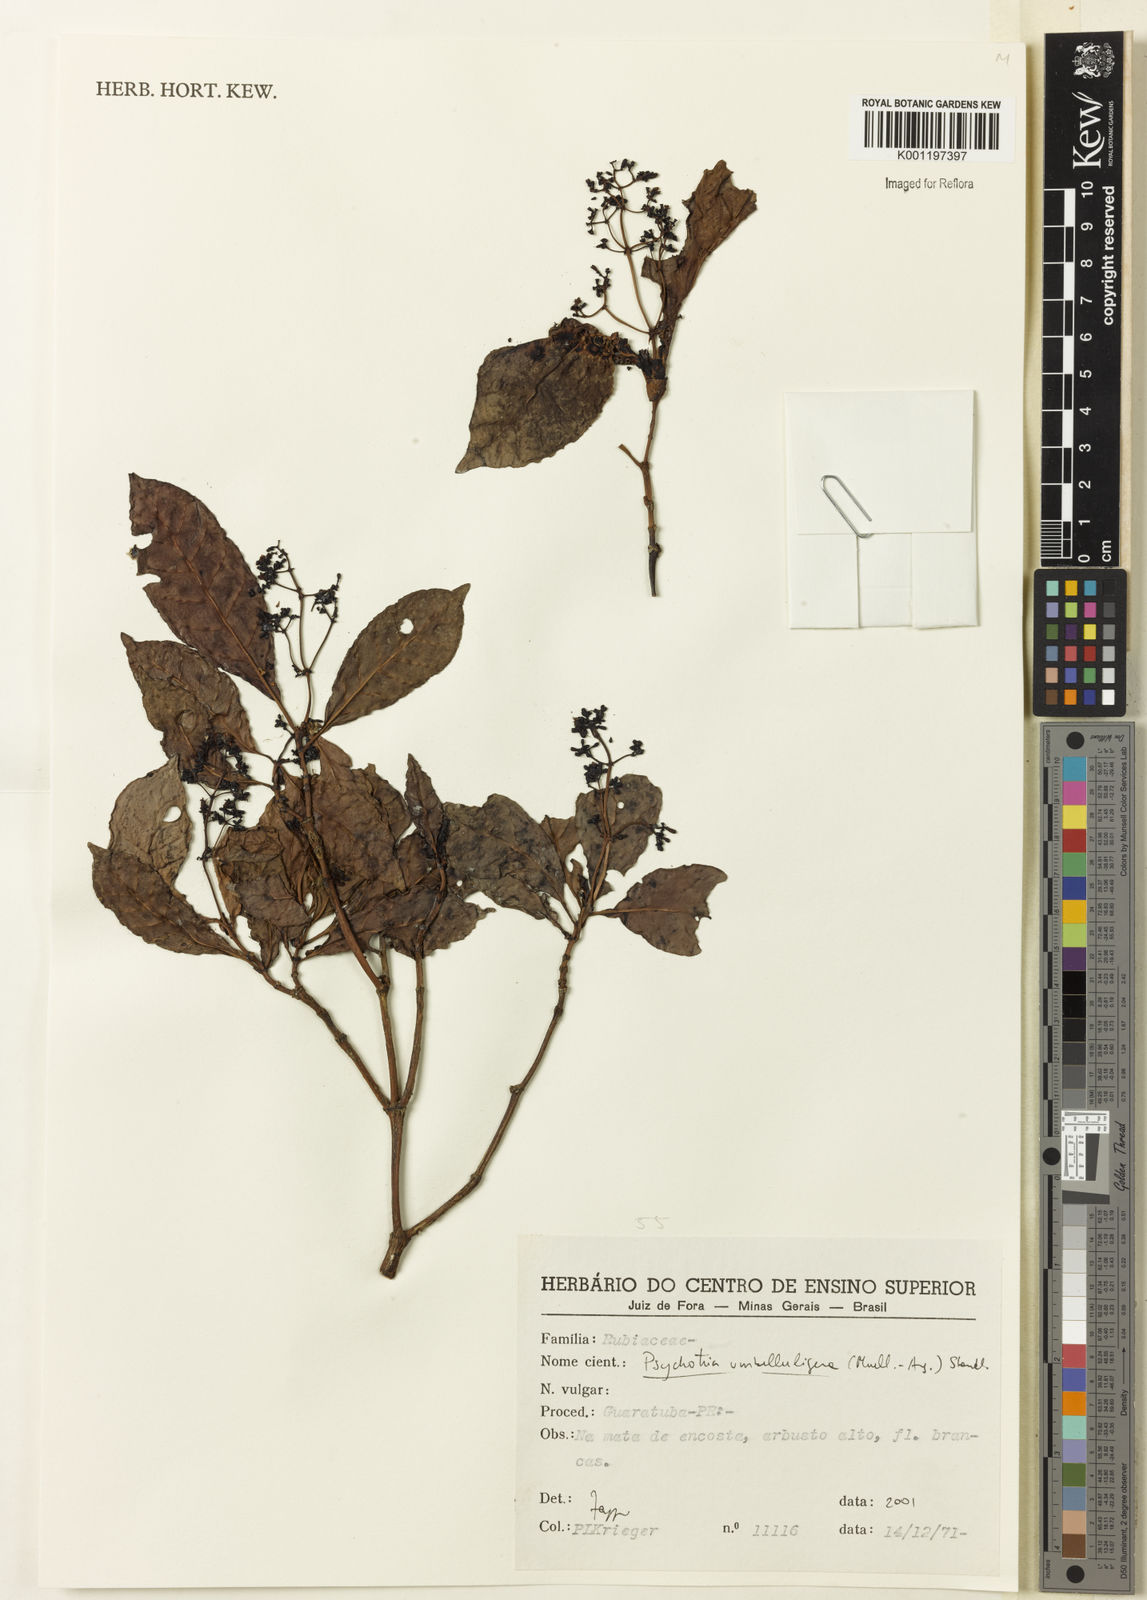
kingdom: Plantae
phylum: Tracheophyta
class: Magnoliopsida
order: Gentianales
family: Rubiaceae
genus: Psychotria
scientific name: Psychotria
